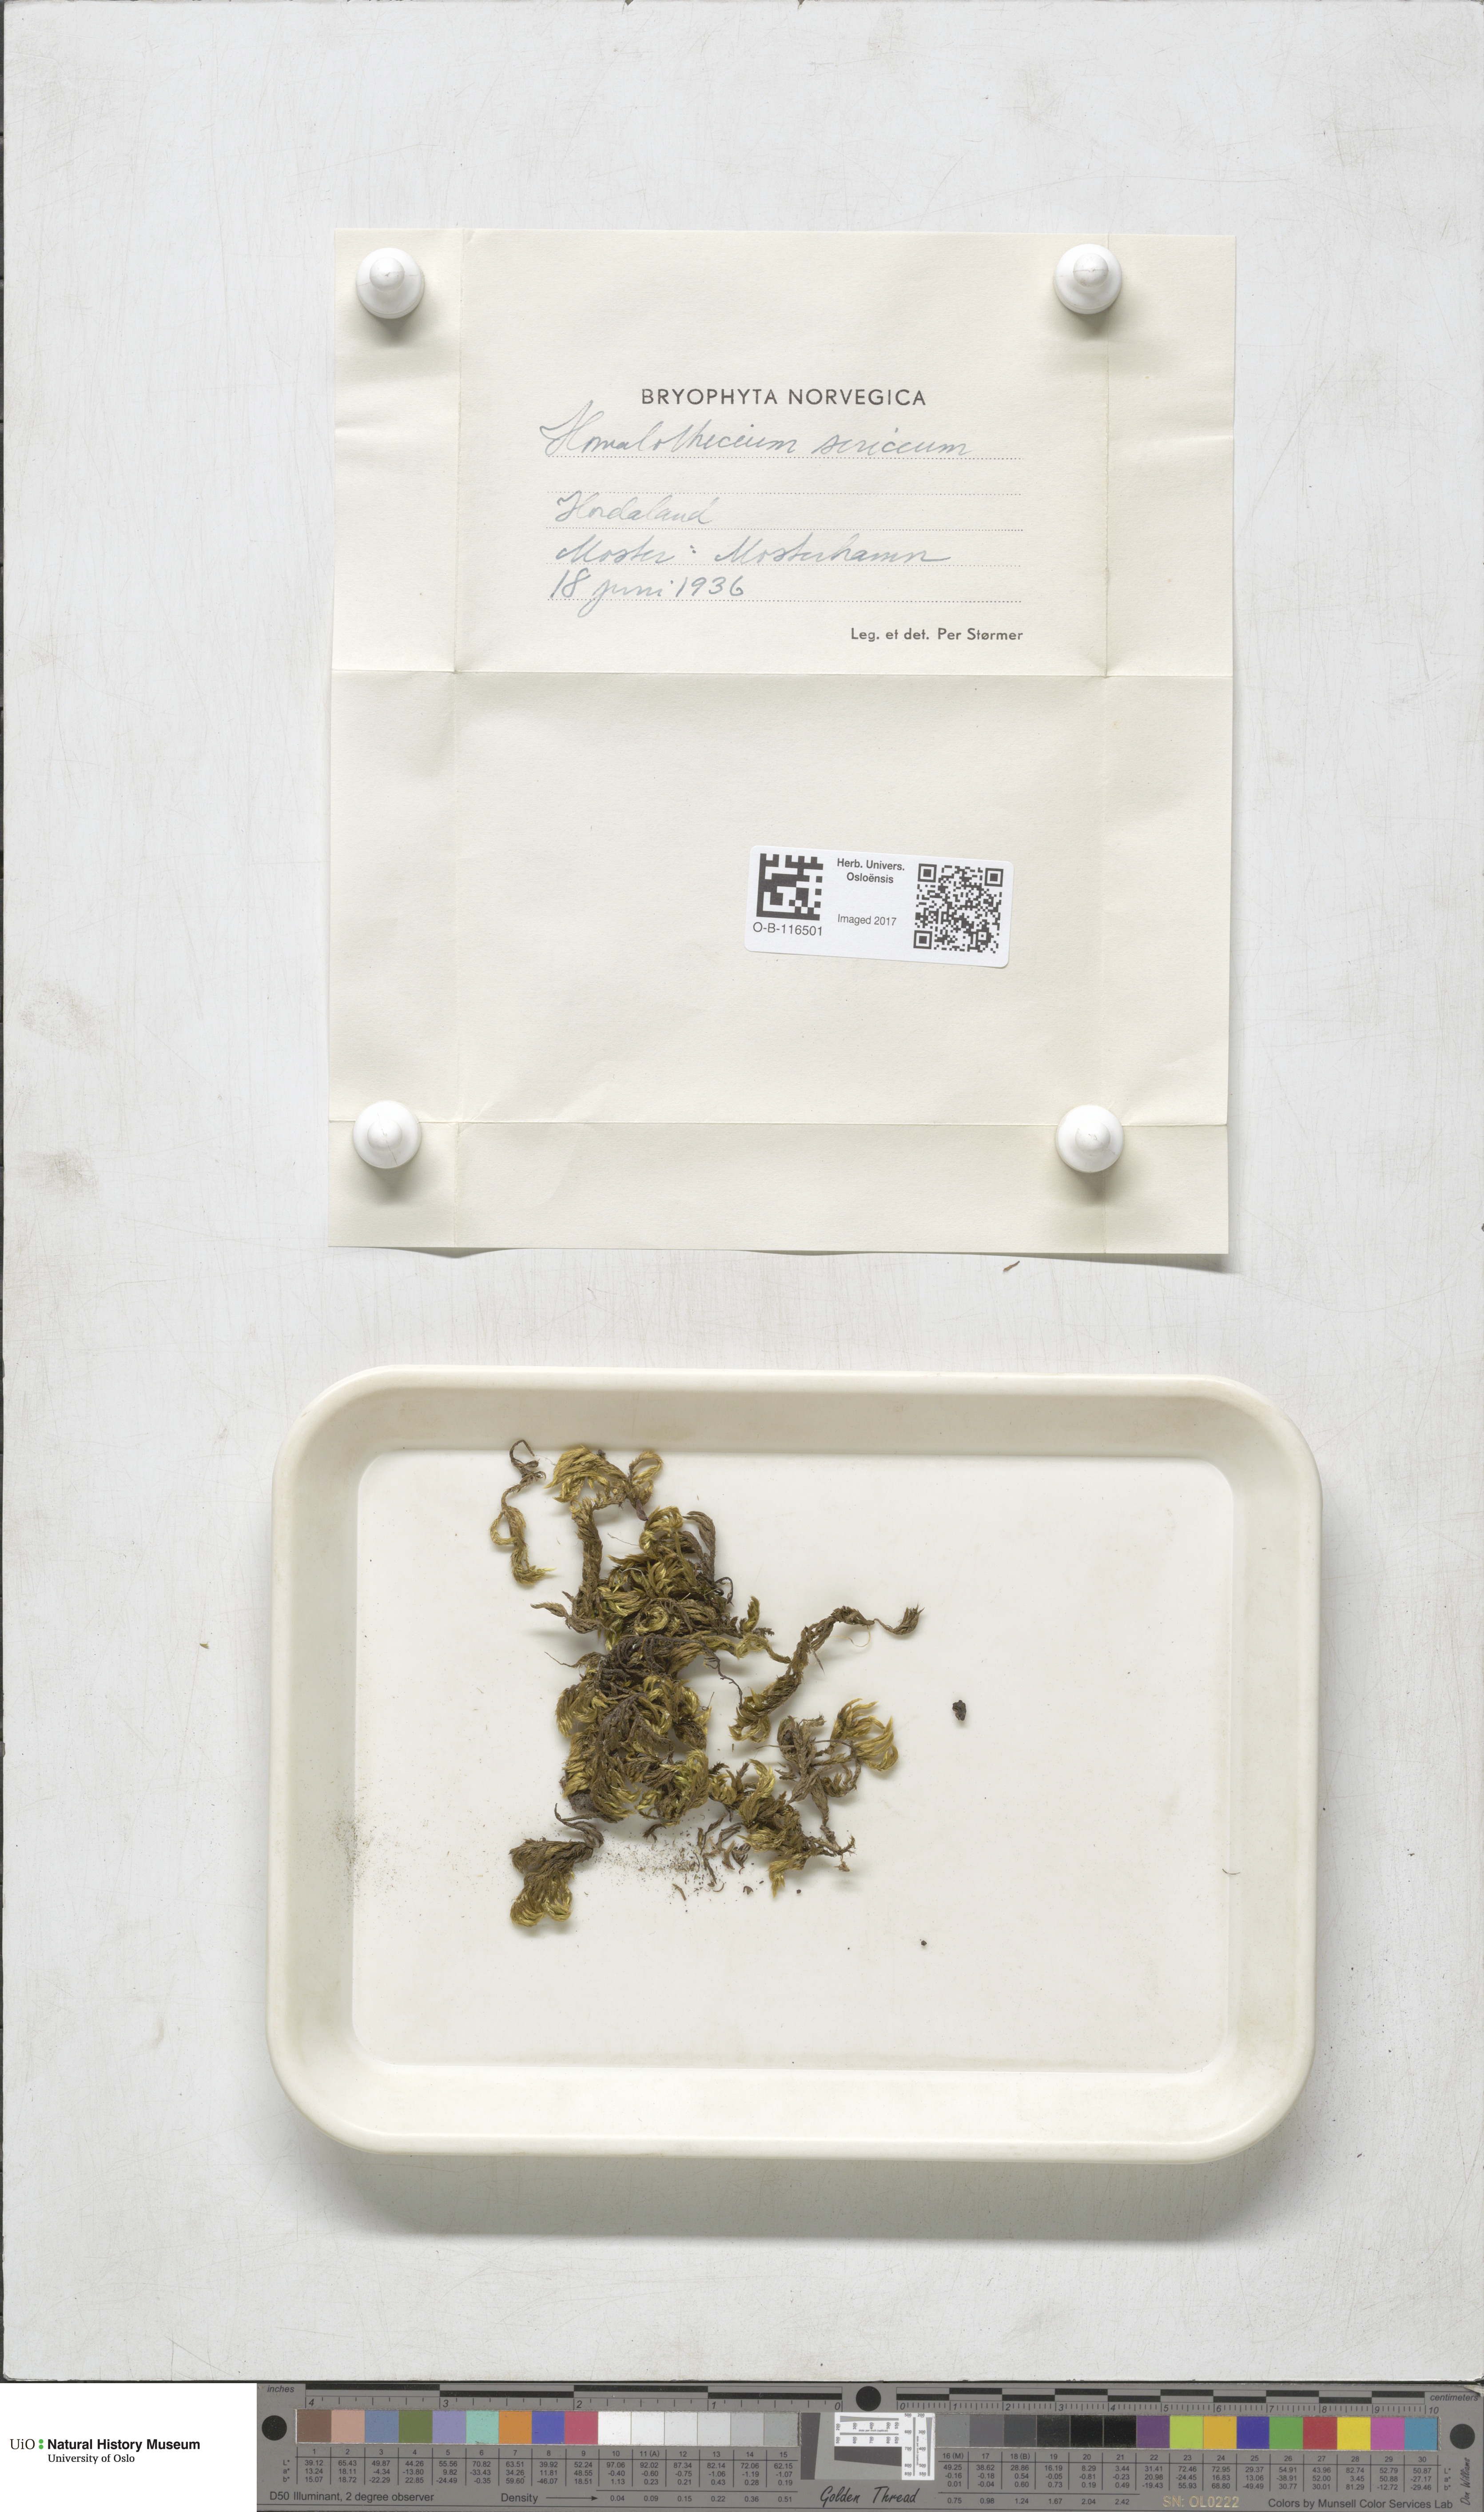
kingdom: Plantae
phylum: Bryophyta
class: Bryopsida
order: Hypnales
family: Brachytheciaceae
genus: Homalothecium
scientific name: Homalothecium sericeum
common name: Silky wall feather-moss
